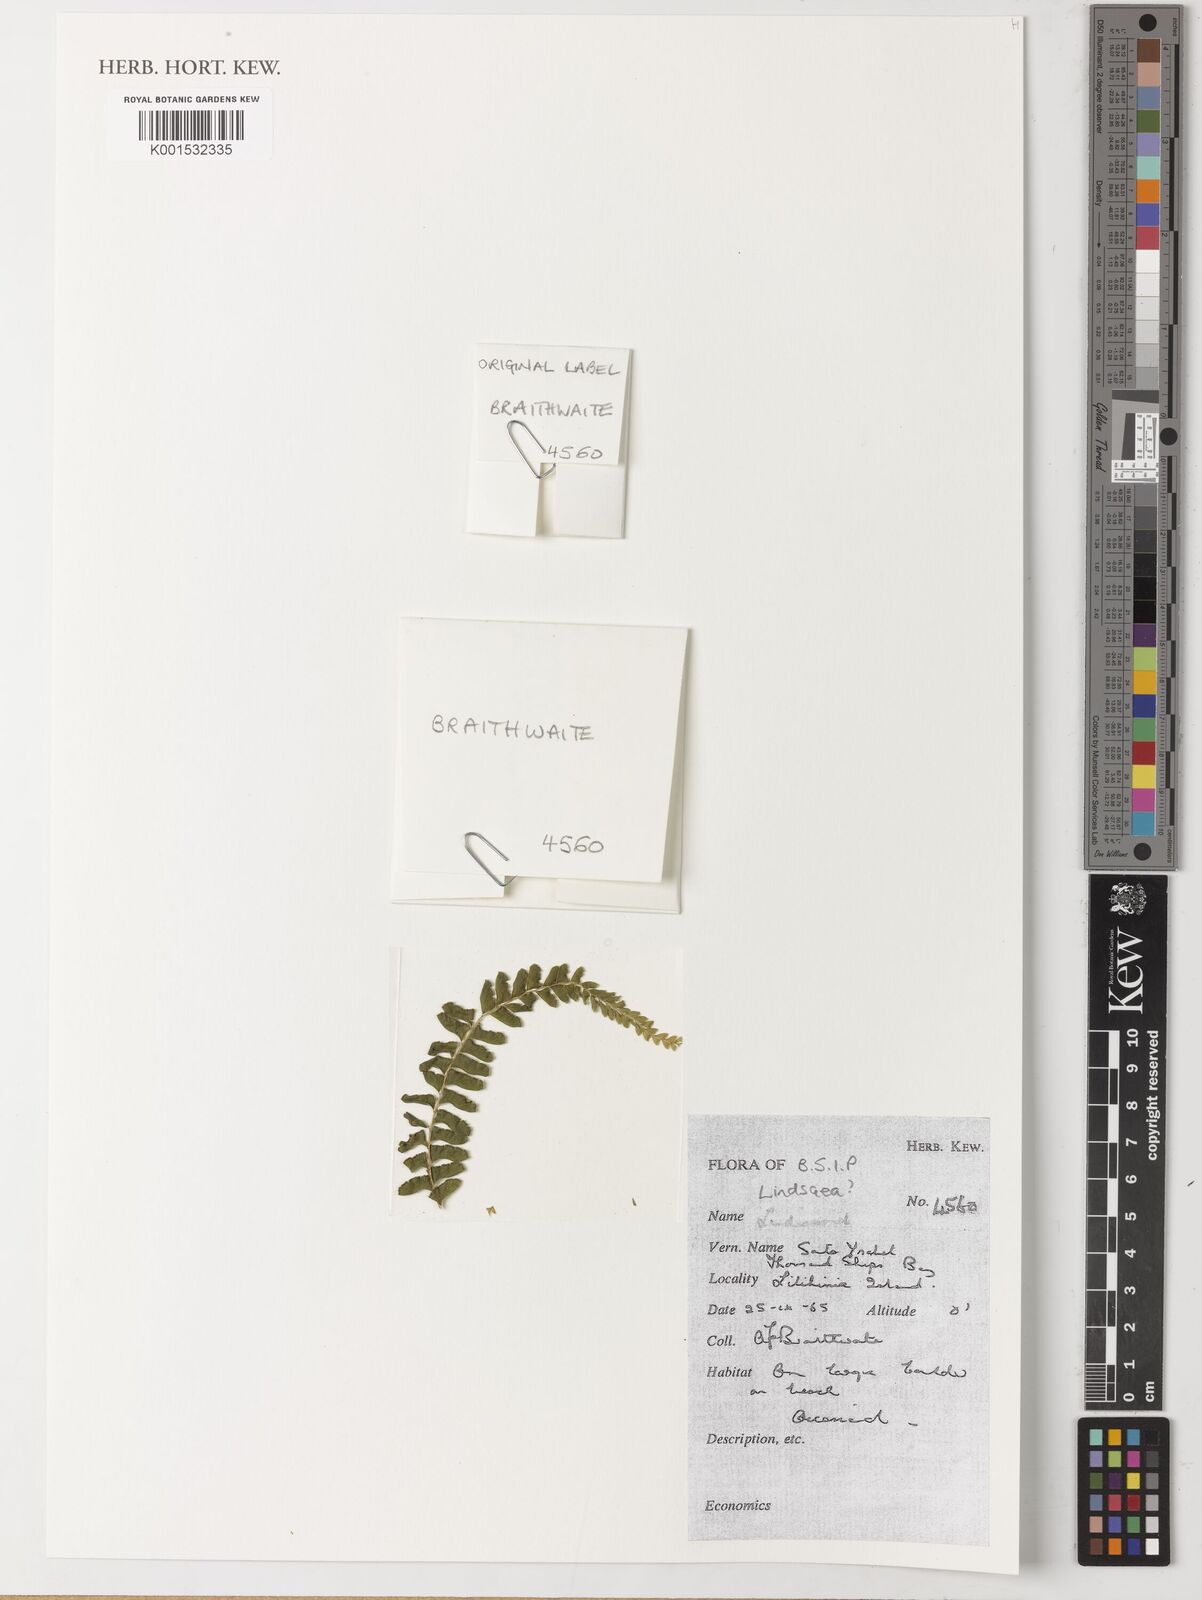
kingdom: Plantae
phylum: Tracheophyta
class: Polypodiopsida
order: Polypodiales
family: Lindsaeaceae
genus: Lindsaea
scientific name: Lindsaea
